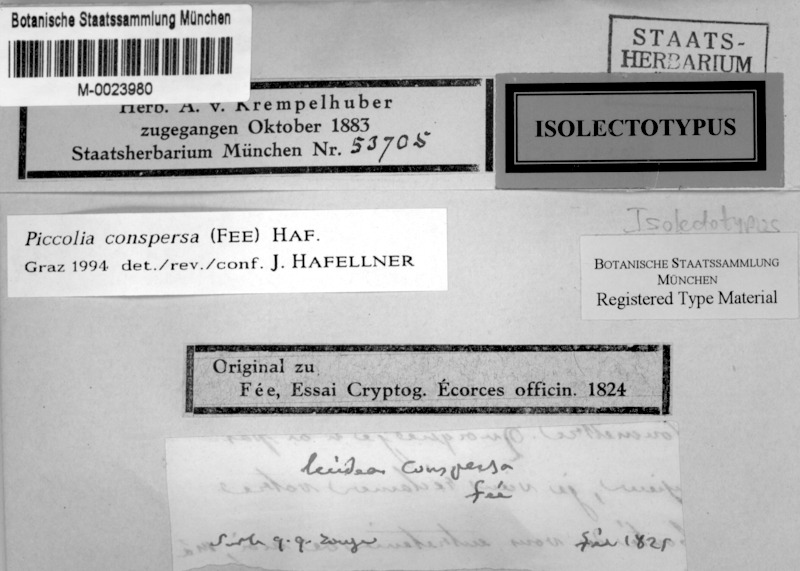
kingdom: Fungi
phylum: Ascomycota
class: Lecanoromycetes
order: Lecanorales
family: Biatorellaceae
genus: Piccolia
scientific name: Piccolia conspersa
